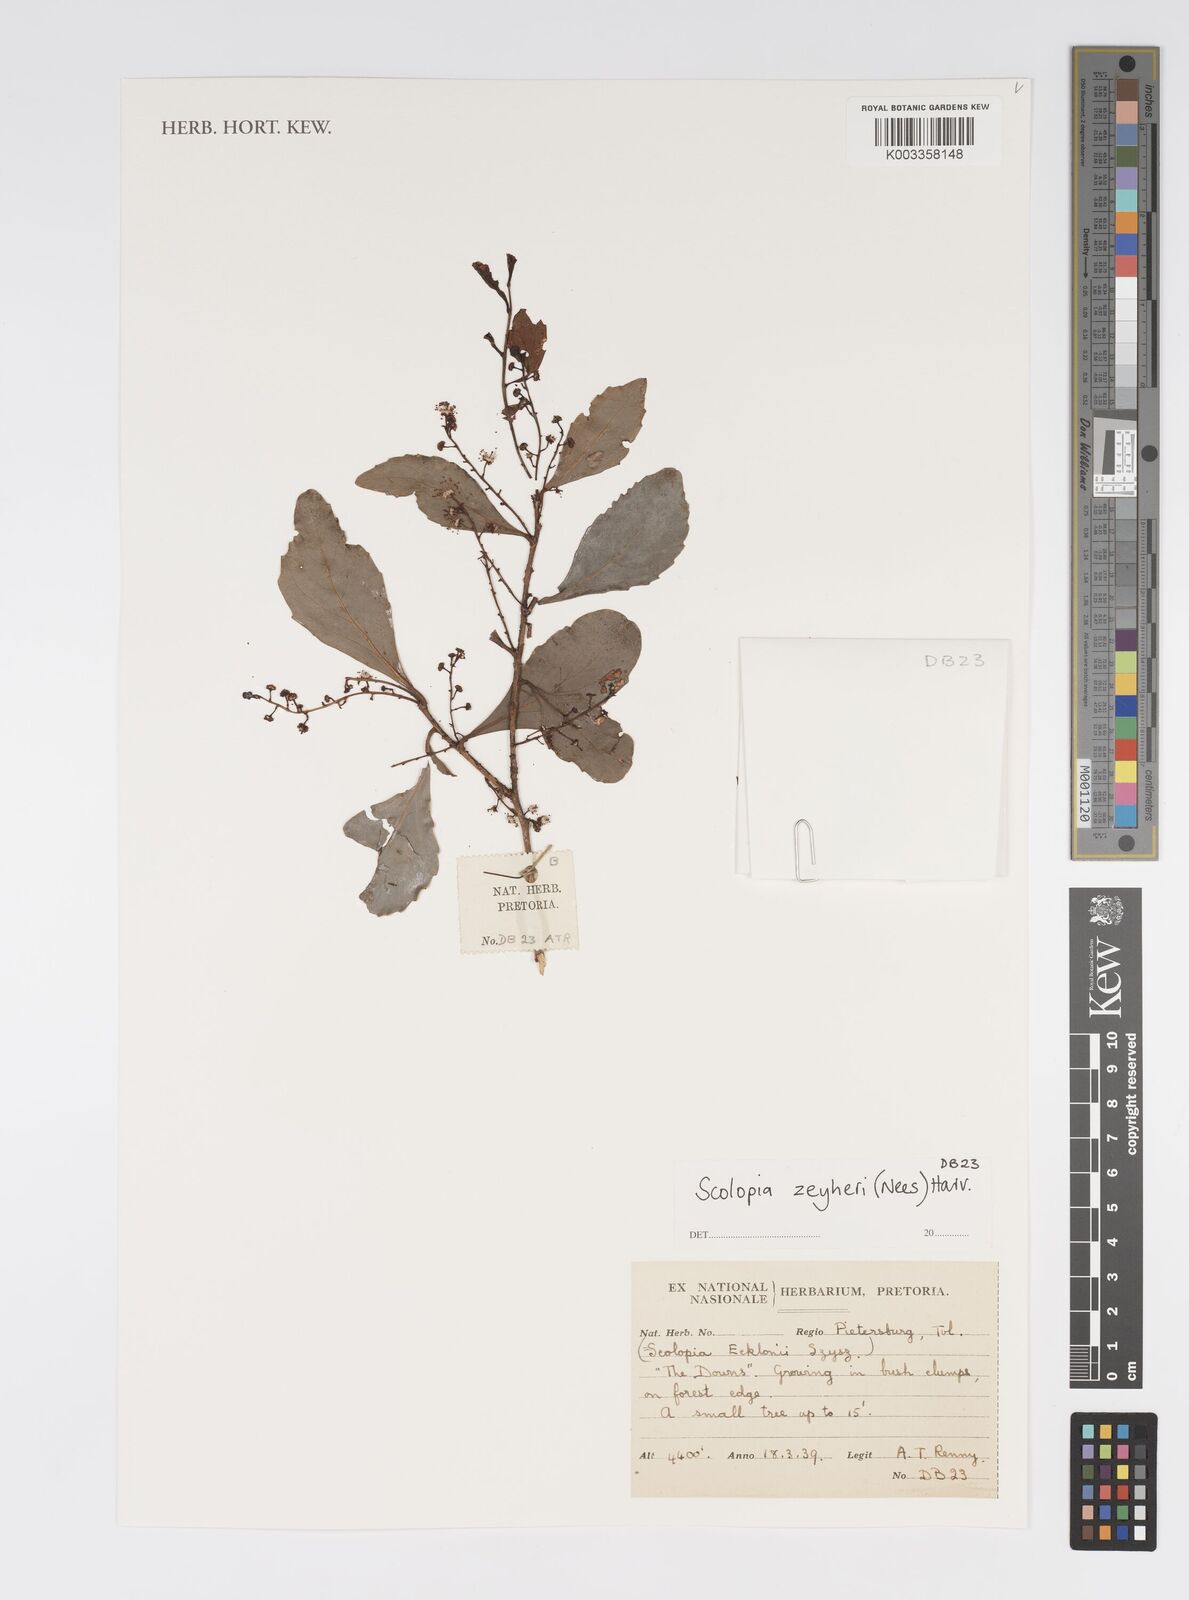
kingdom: Plantae
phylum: Tracheophyta
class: Magnoliopsida
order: Malpighiales
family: Salicaceae
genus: Scolopia
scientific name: Scolopia zeyheri
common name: Thorn pear
